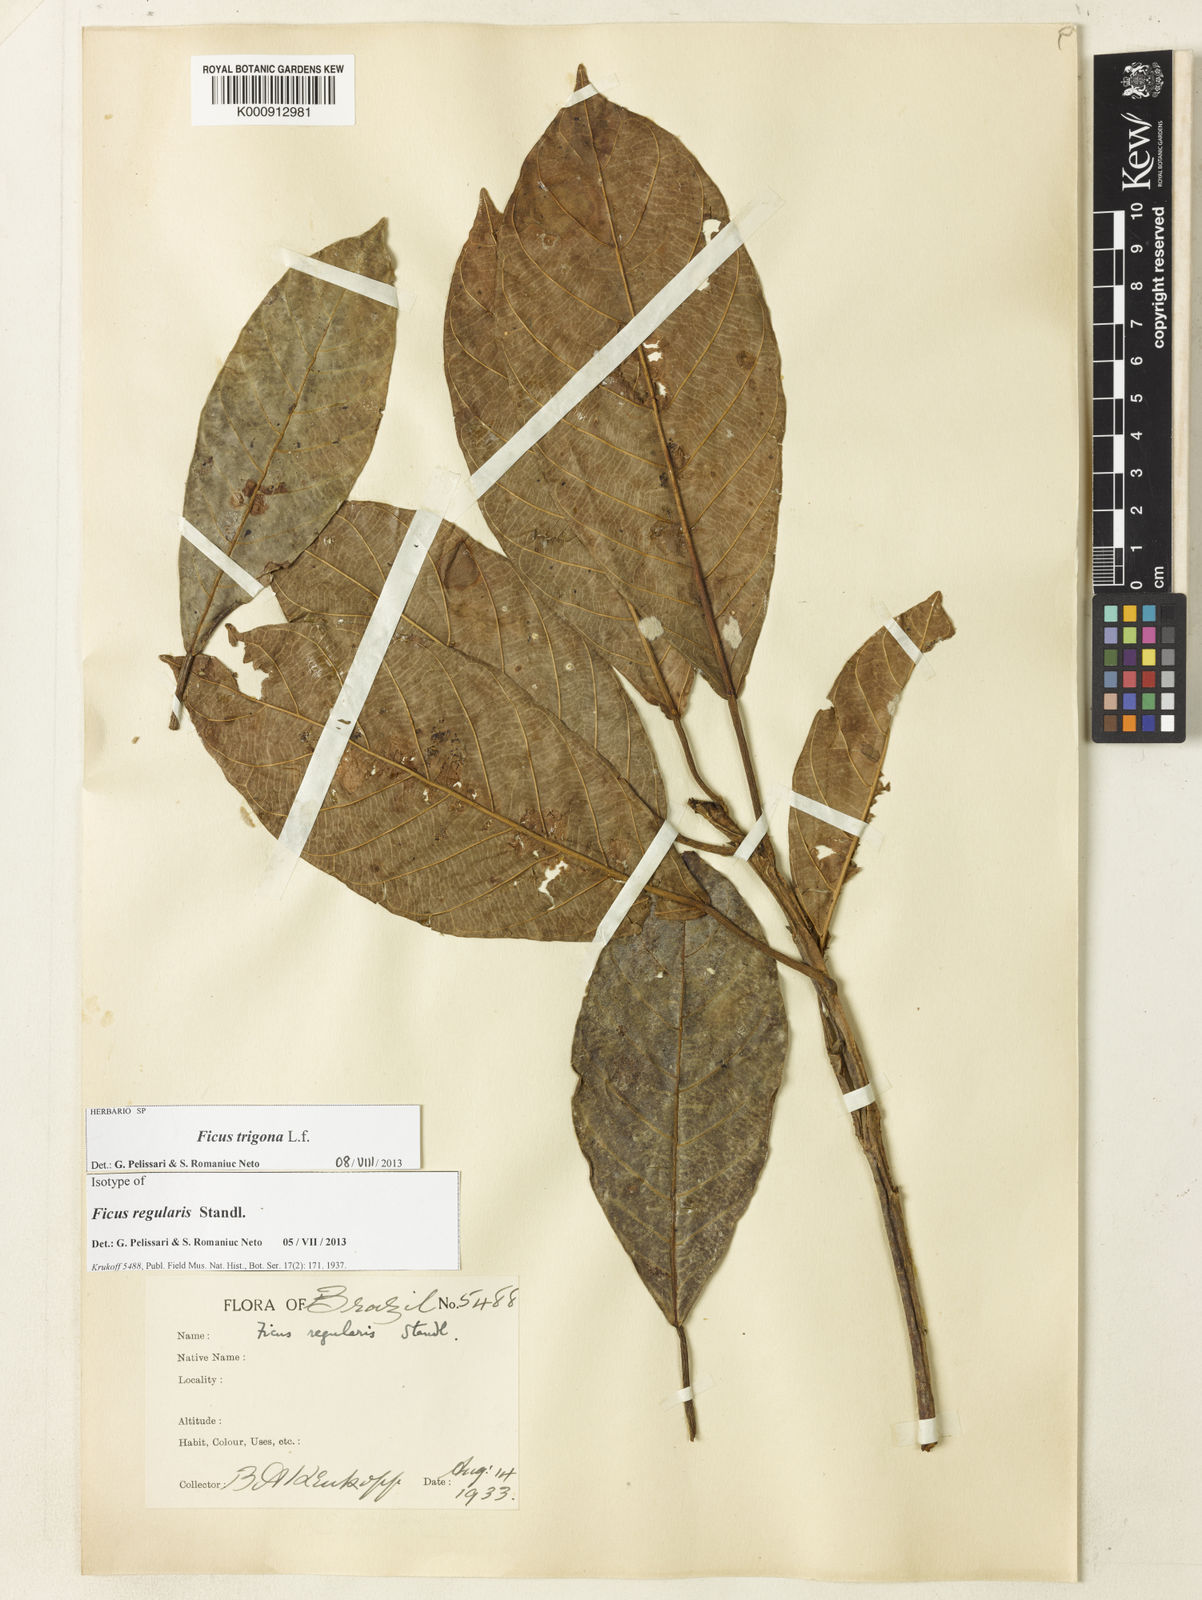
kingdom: Plantae
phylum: Tracheophyta
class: Magnoliopsida
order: Rosales
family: Moraceae
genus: Ficus
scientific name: Ficus trigona
